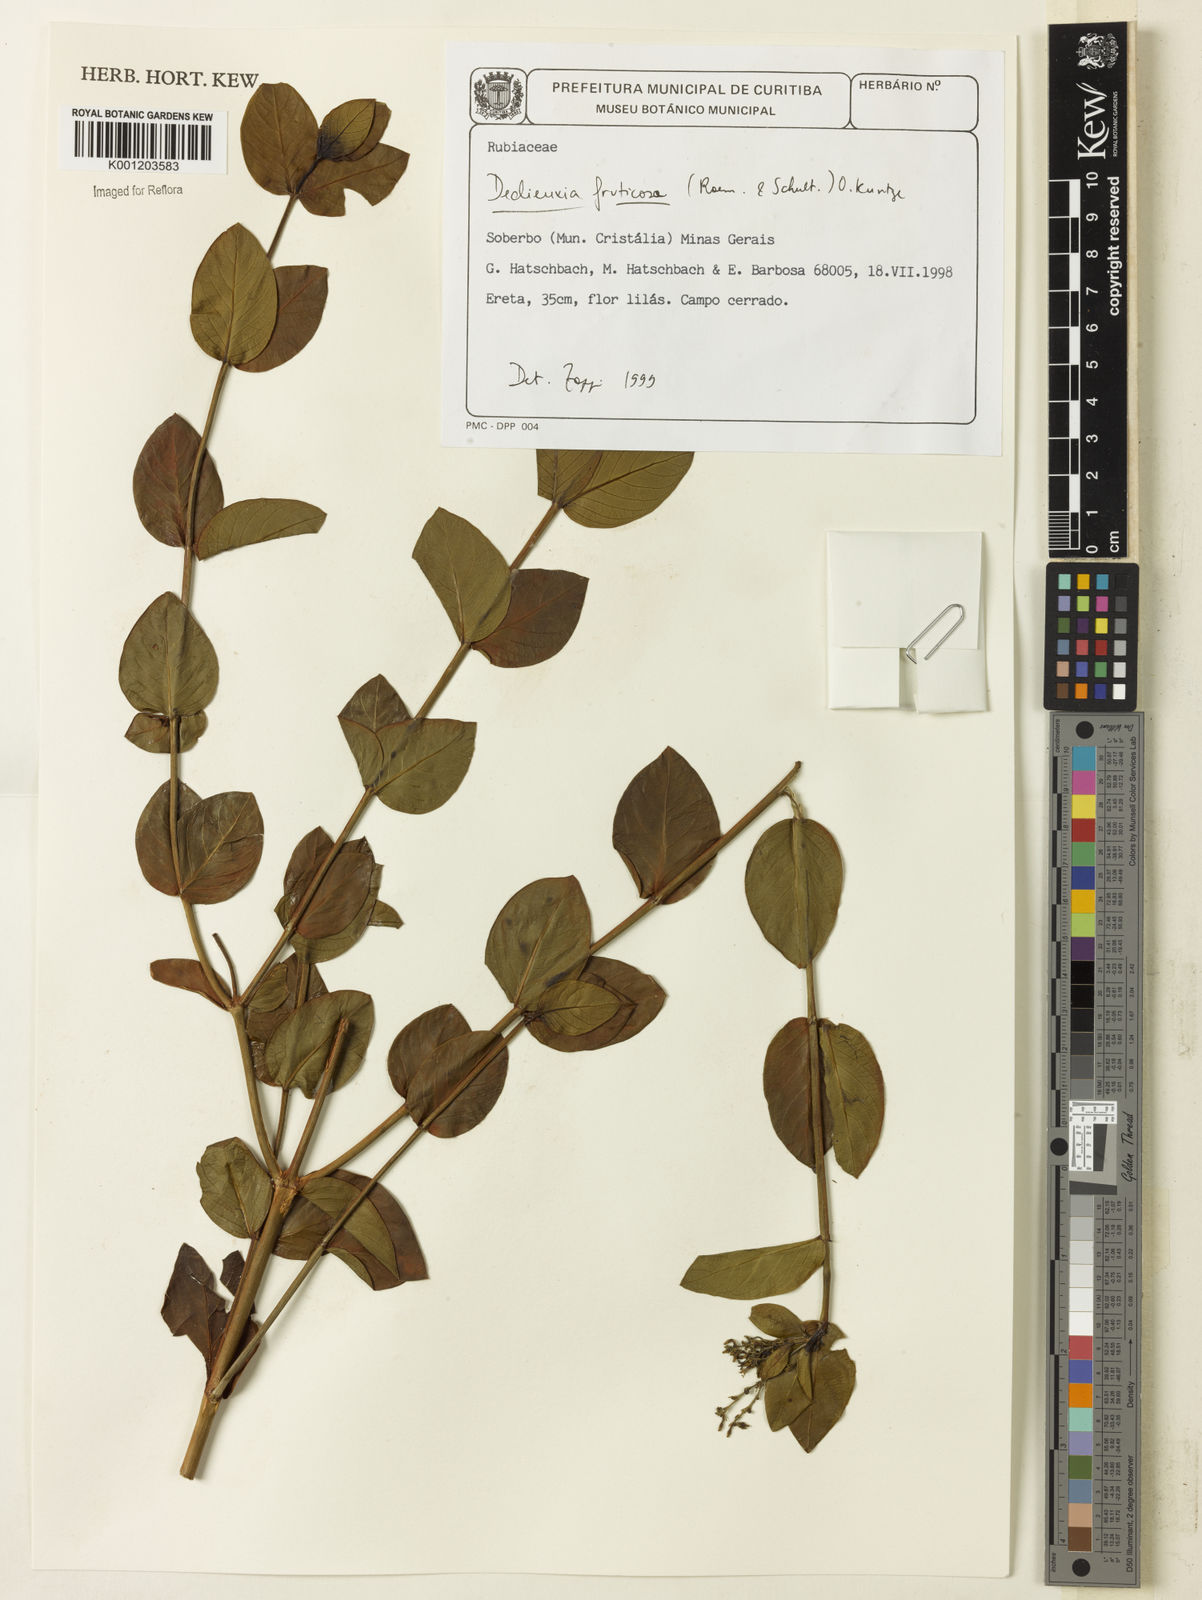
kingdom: Plantae
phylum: Tracheophyta
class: Magnoliopsida
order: Gentianales
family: Rubiaceae
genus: Declieuxia
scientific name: Declieuxia fruticosa
